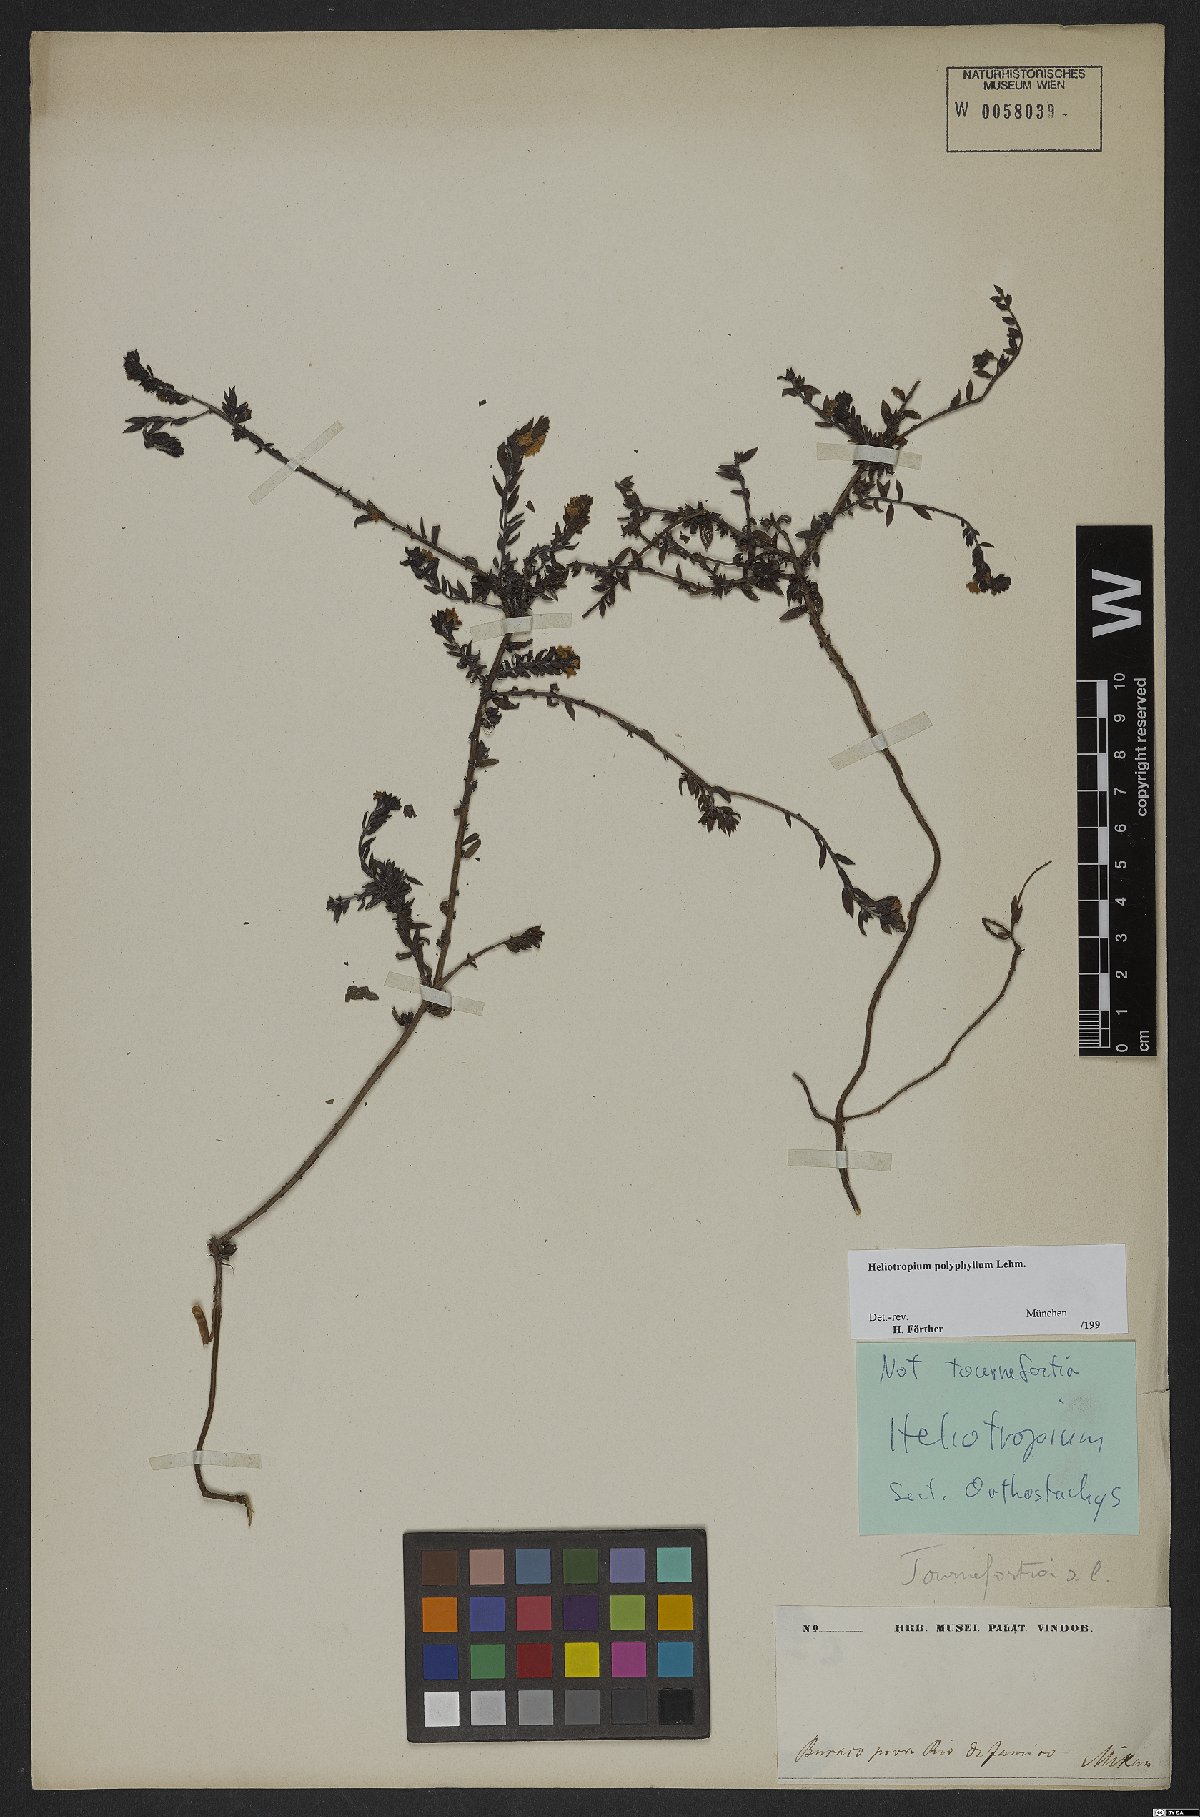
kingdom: Plantae
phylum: Tracheophyta
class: Magnoliopsida
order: Boraginales
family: Heliotropiaceae
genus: Euploca
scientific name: Euploca polyphylla
